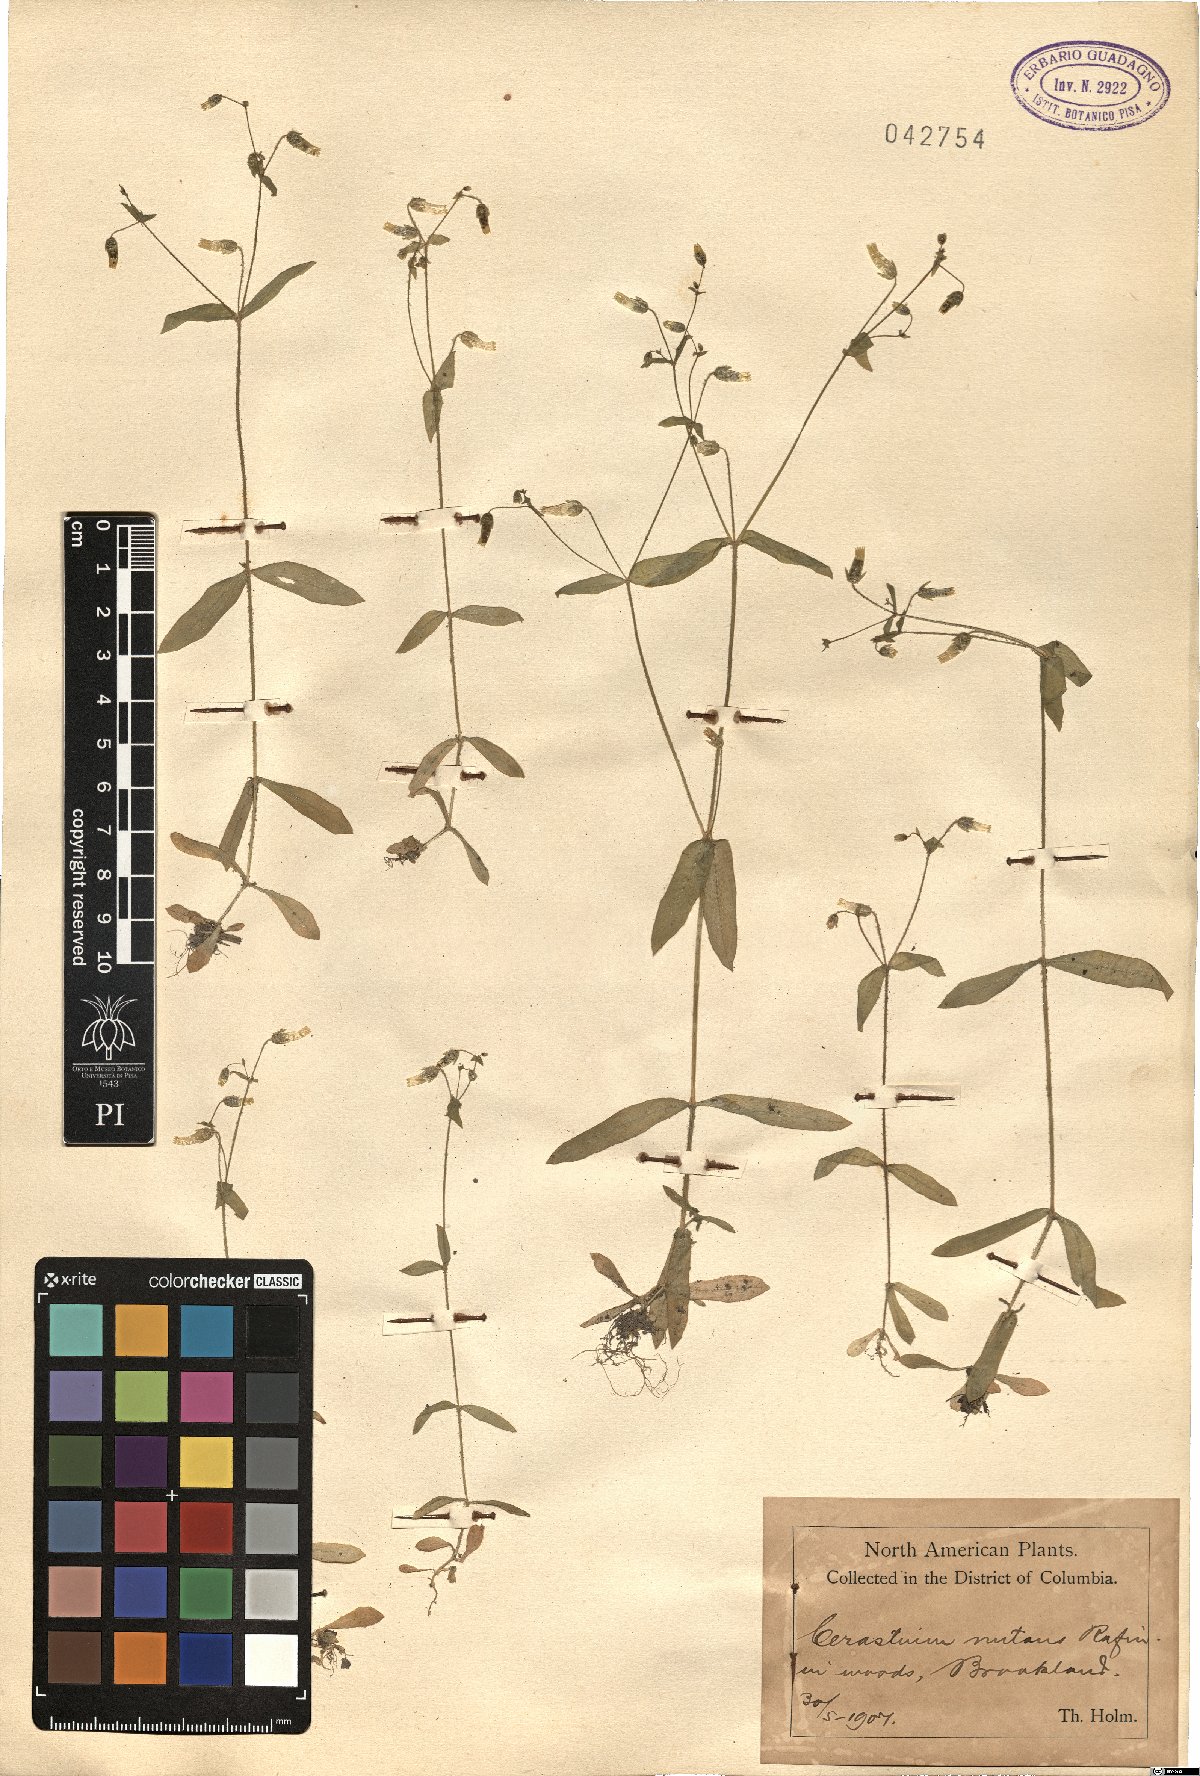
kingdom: Plantae
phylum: Tracheophyta
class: Magnoliopsida
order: Caryophyllales
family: Caryophyllaceae
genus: Cerastium
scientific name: Cerastium nutans
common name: Long-stalked chickweed
